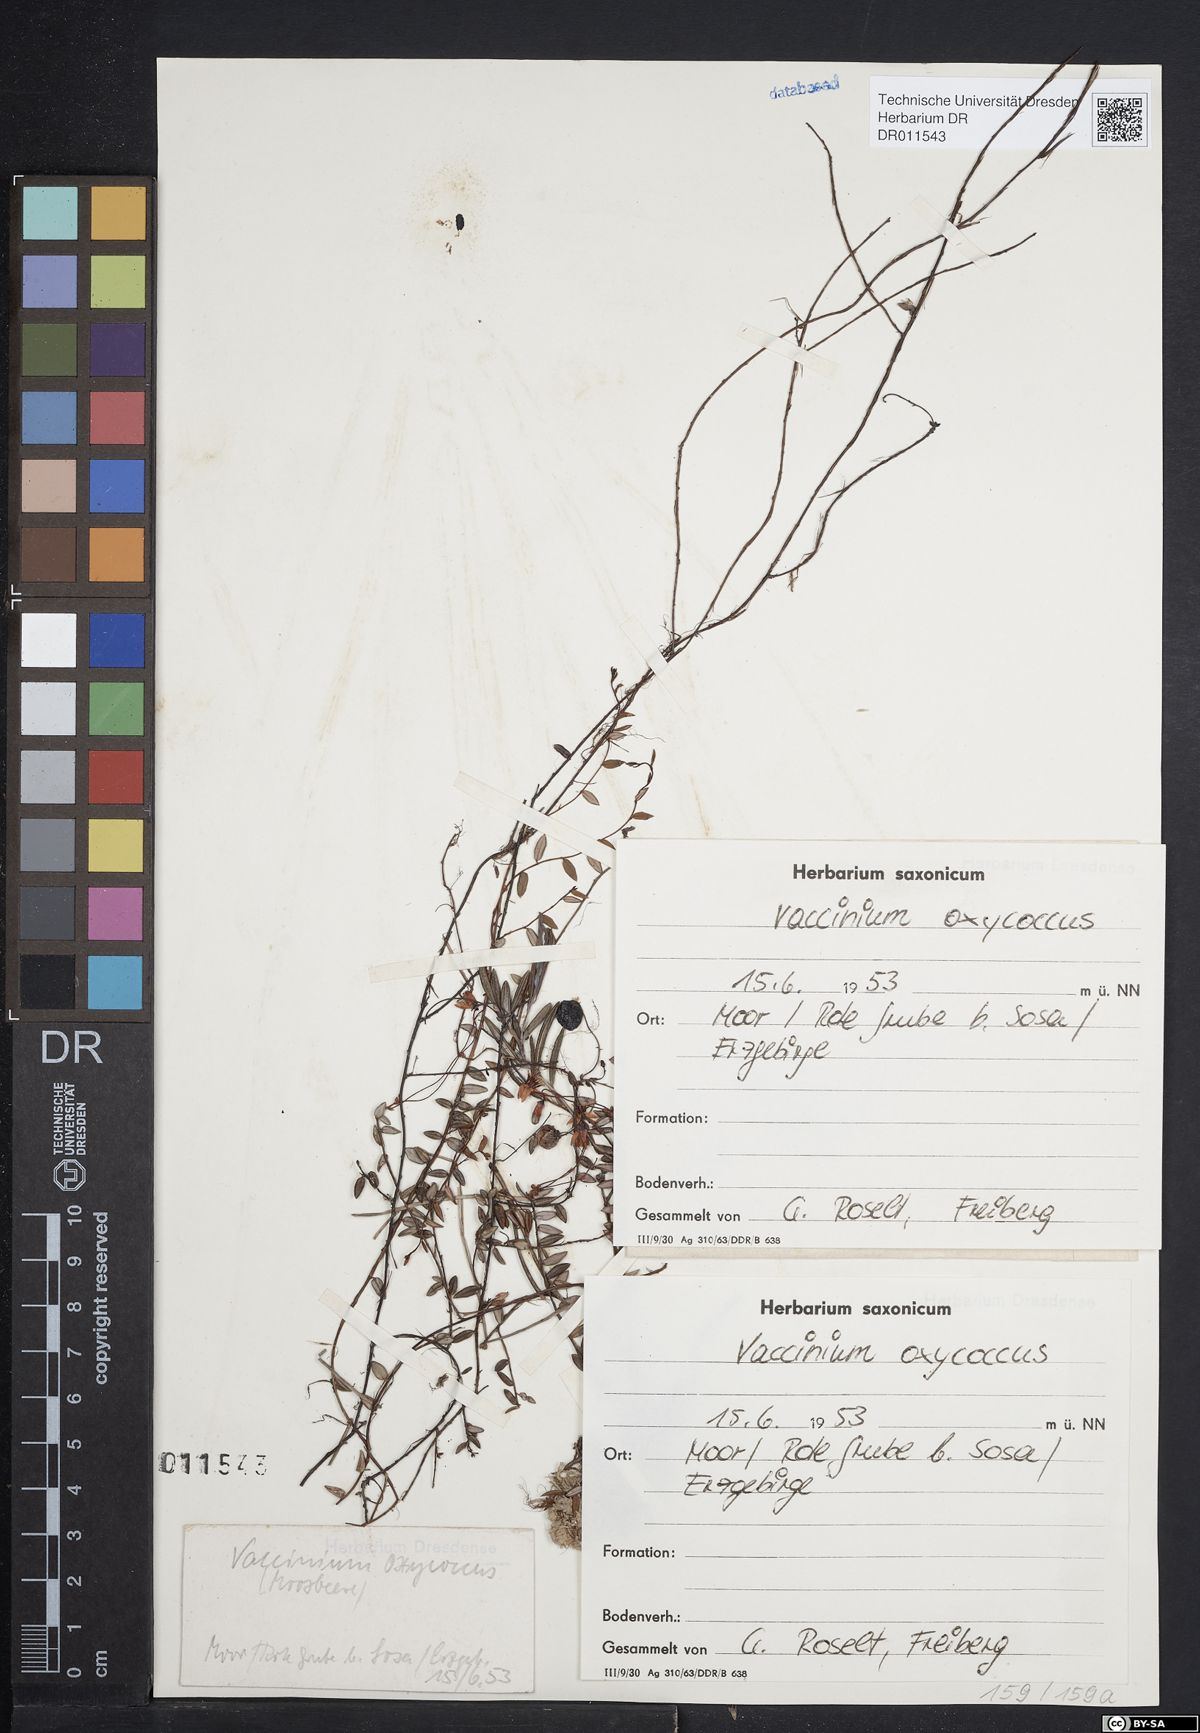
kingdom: Plantae
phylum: Tracheophyta
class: Magnoliopsida
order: Ericales
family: Ericaceae
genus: Vaccinium
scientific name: Vaccinium oxycoccos
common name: Cranberry
